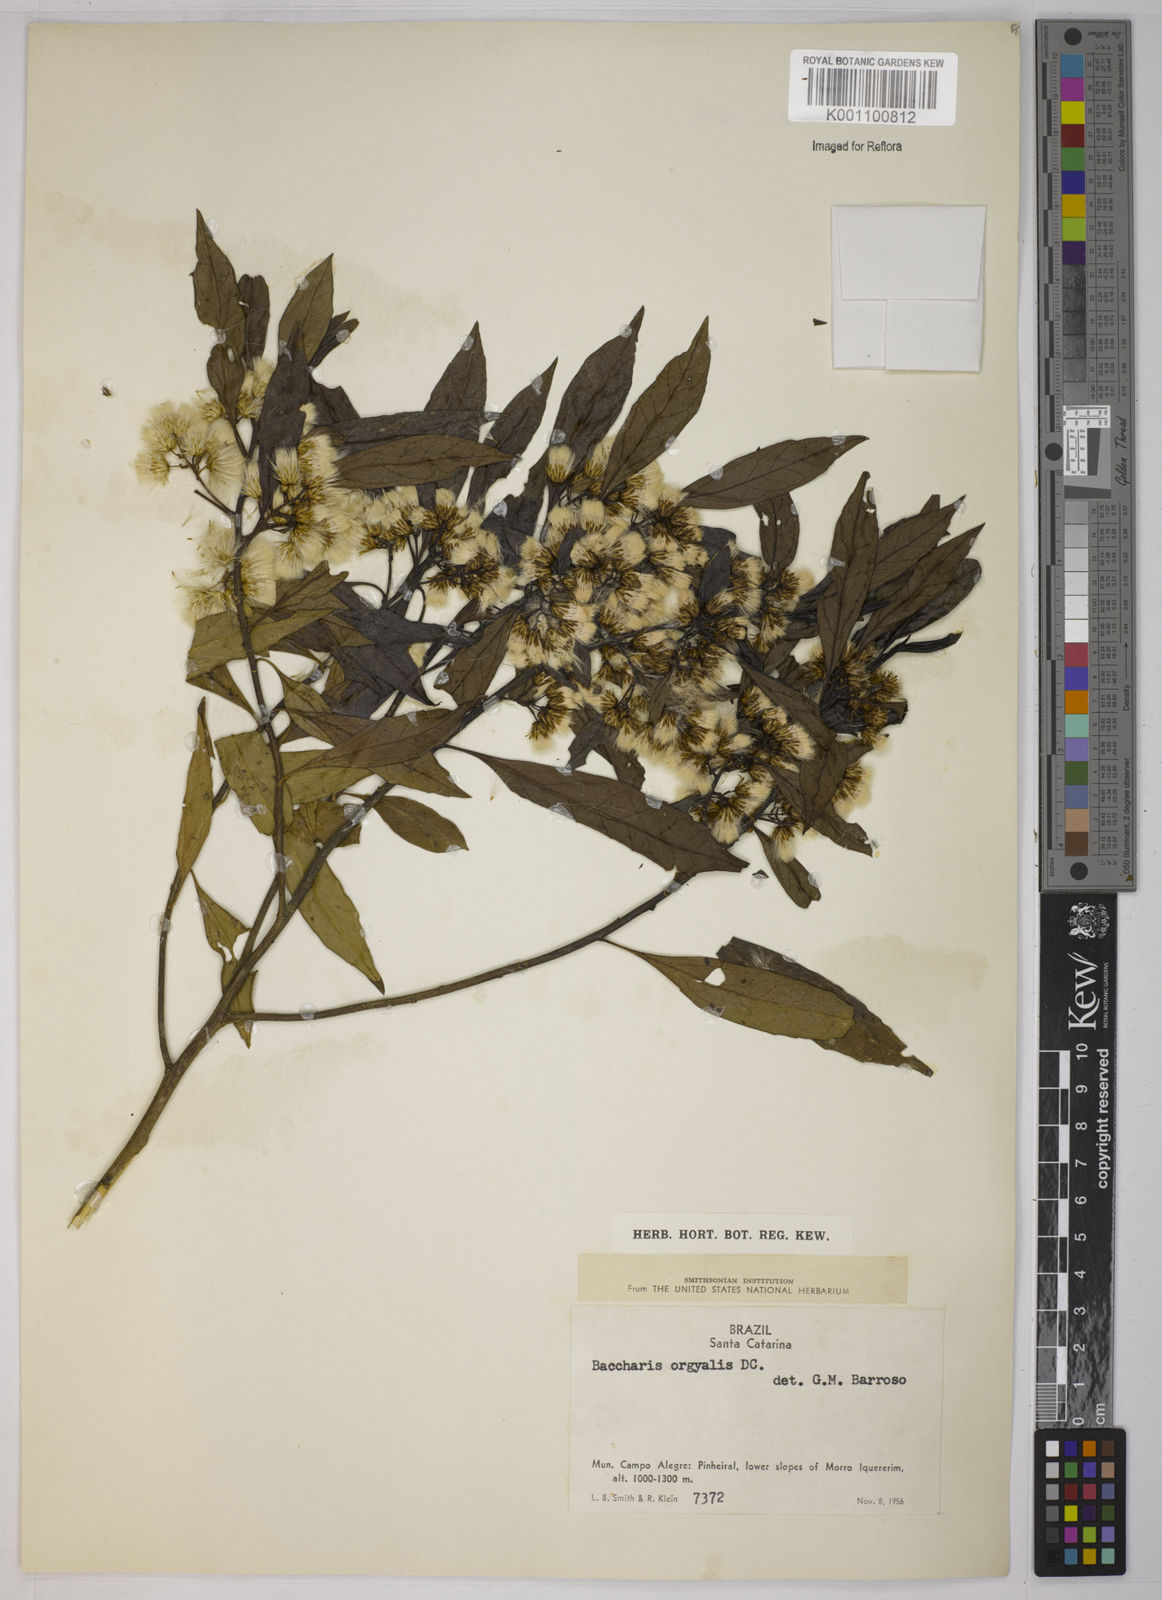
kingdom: Plantae
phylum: Tracheophyta
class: Magnoliopsida
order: Asterales
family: Asteraceae
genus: Baccharis
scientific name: Baccharis dentata
